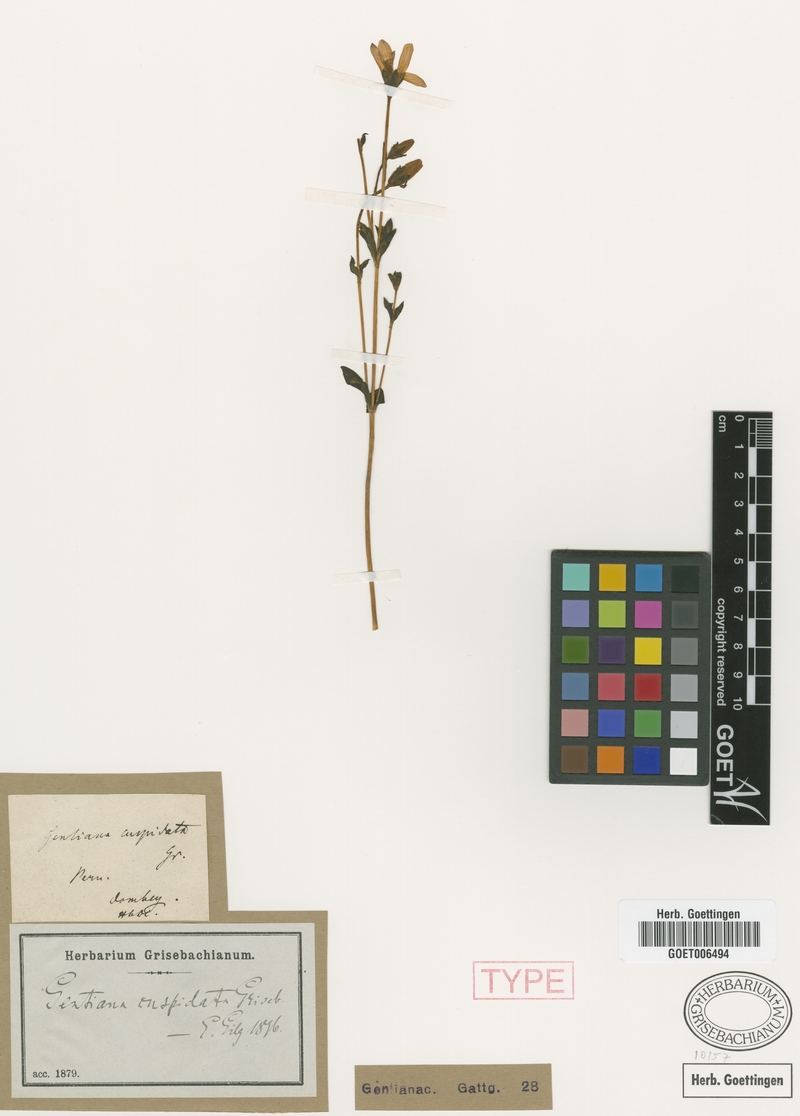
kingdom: Plantae
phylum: Tracheophyta
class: Magnoliopsida
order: Gentianales
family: Gentianaceae
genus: Gentianella
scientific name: Gentianella cuspidata
